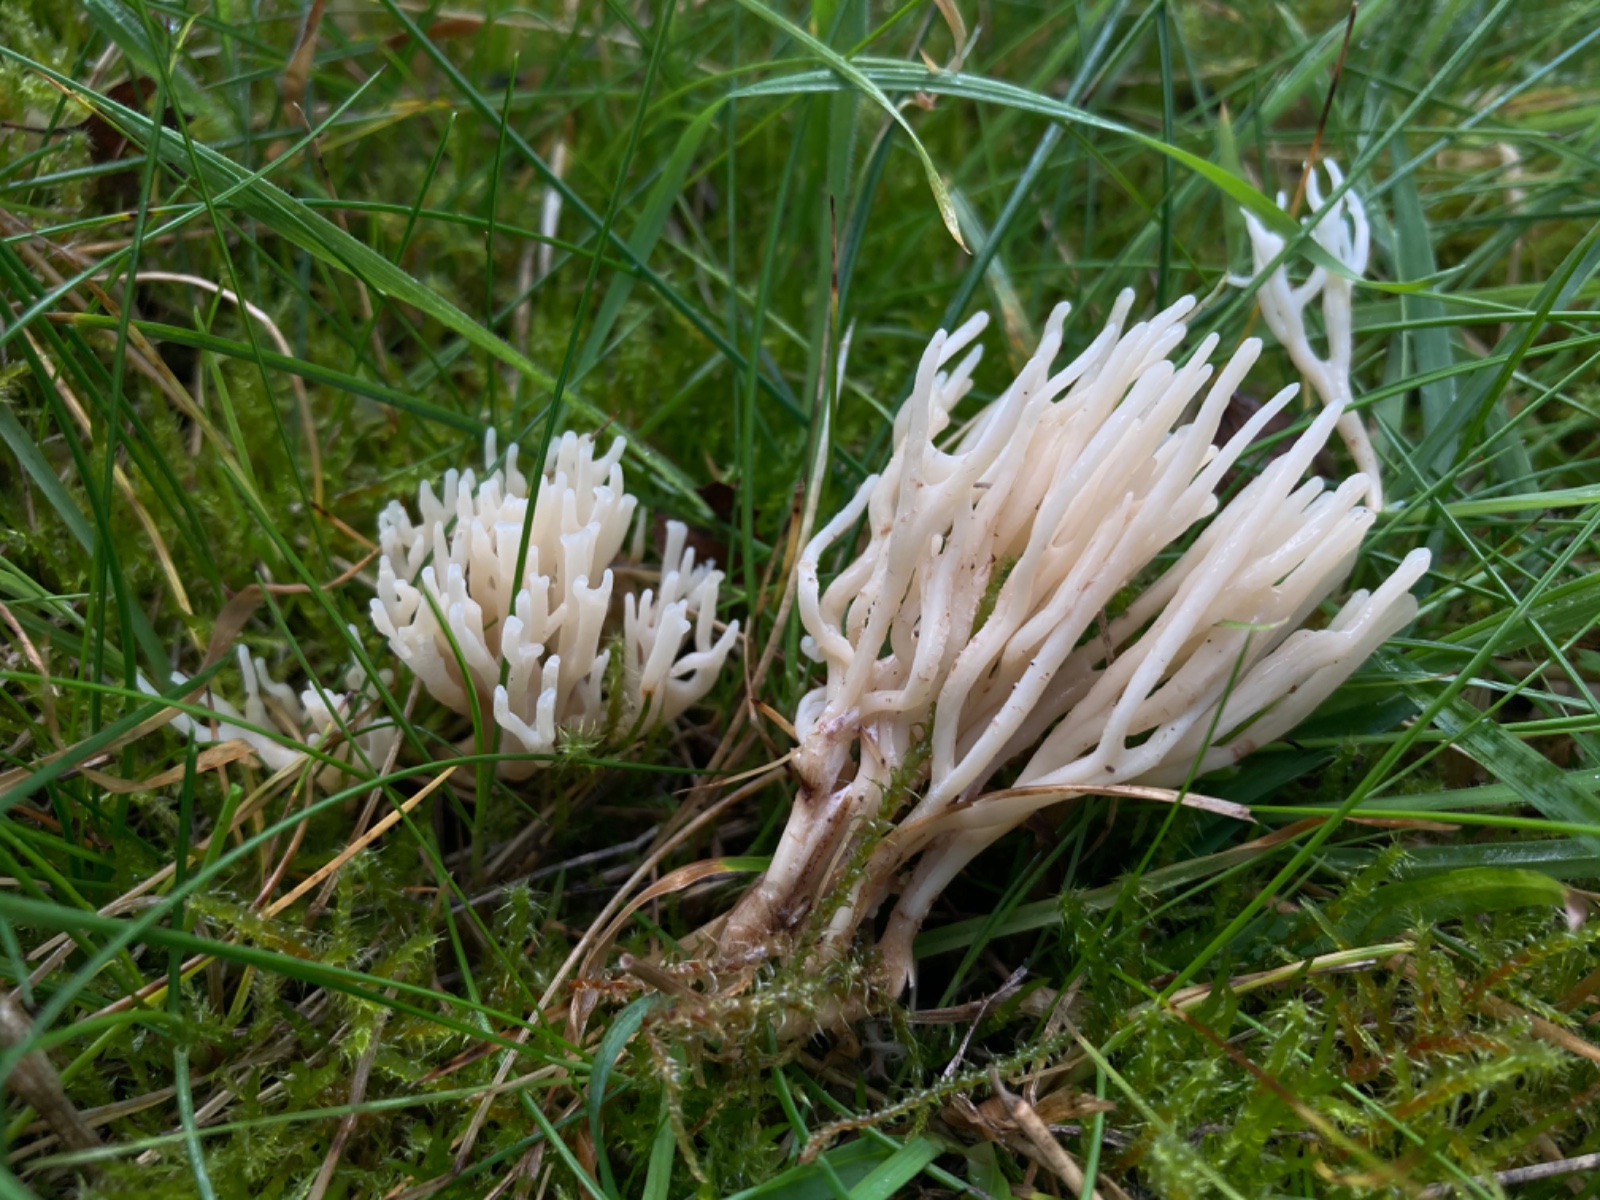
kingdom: Fungi
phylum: Basidiomycota
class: Agaricomycetes
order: Agaricales
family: Clavariaceae
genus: Ramariopsis
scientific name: Ramariopsis
